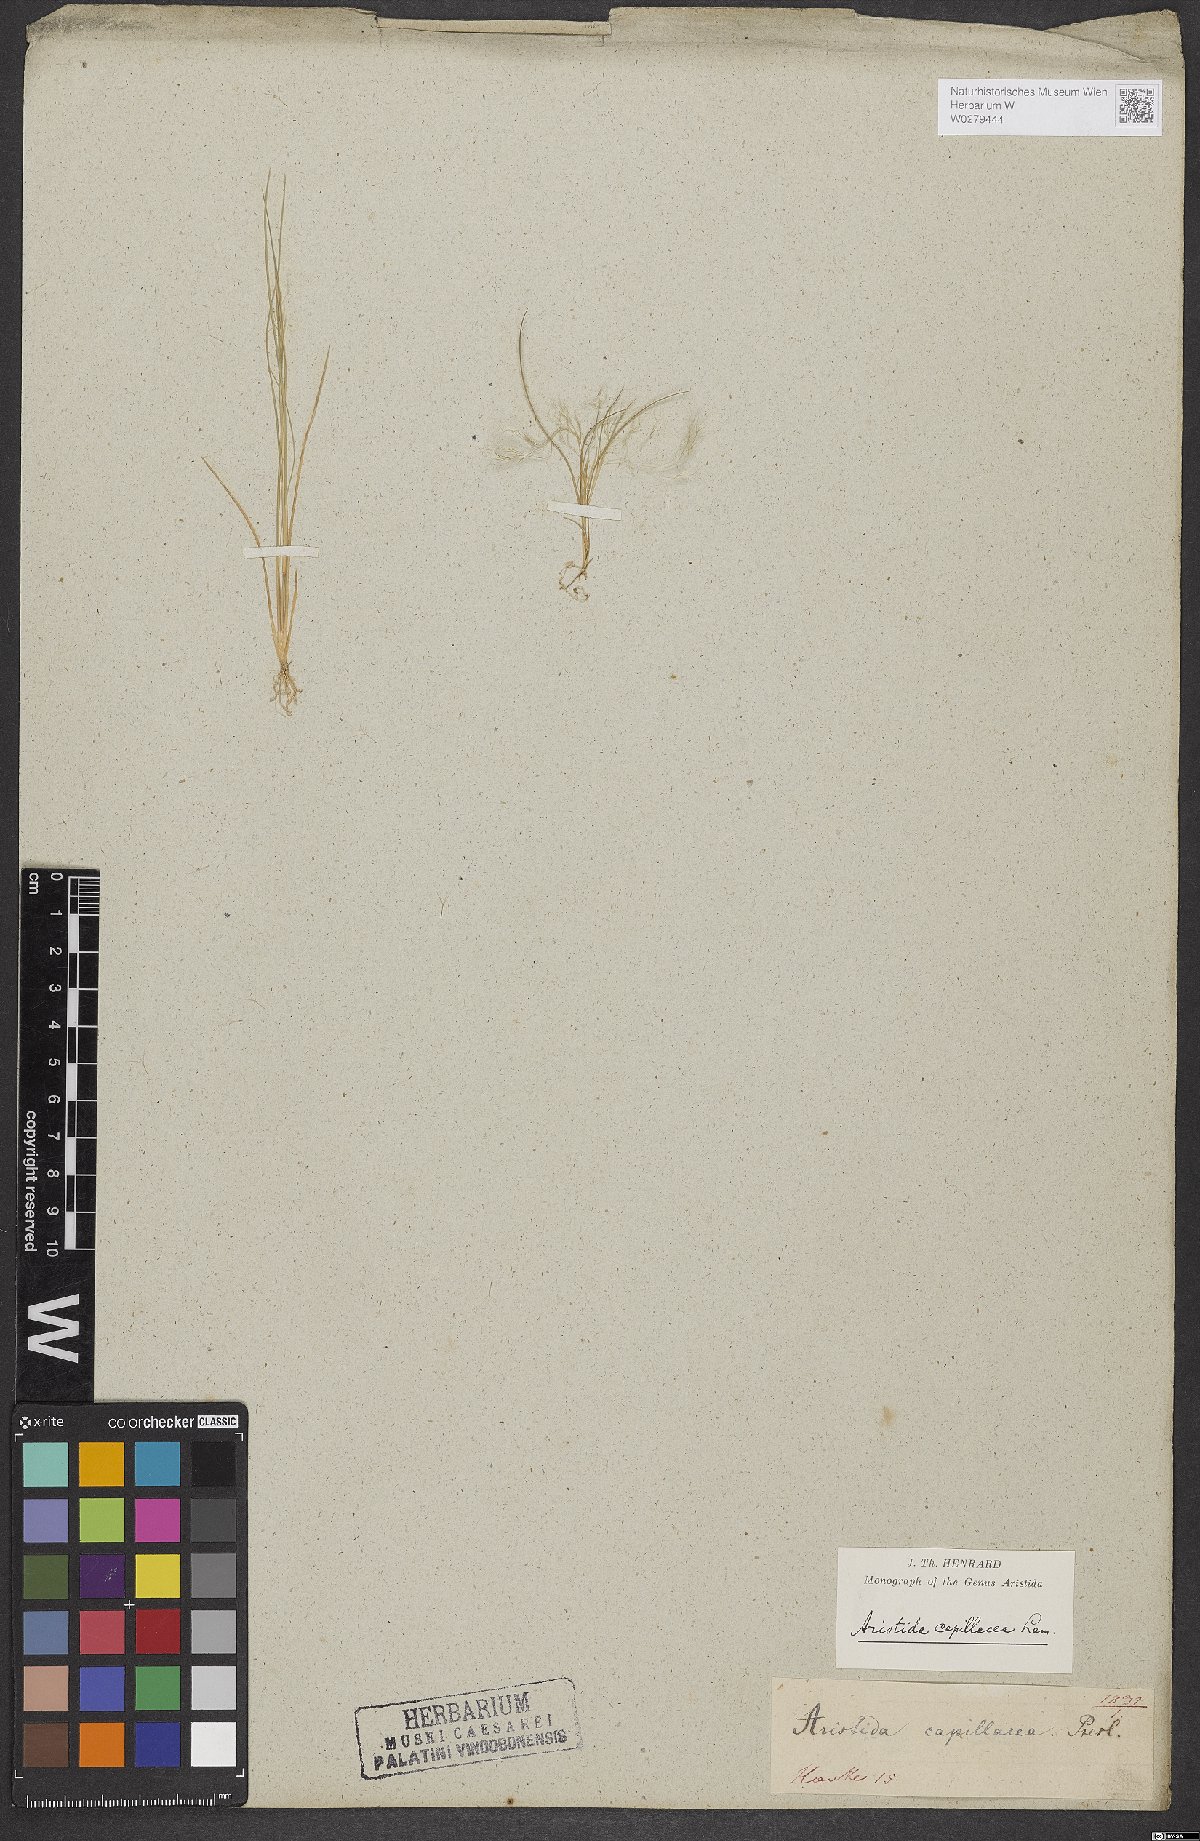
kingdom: Plantae
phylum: Tracheophyta
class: Liliopsida
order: Poales
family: Poaceae
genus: Aristida
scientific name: Aristida capillacea
